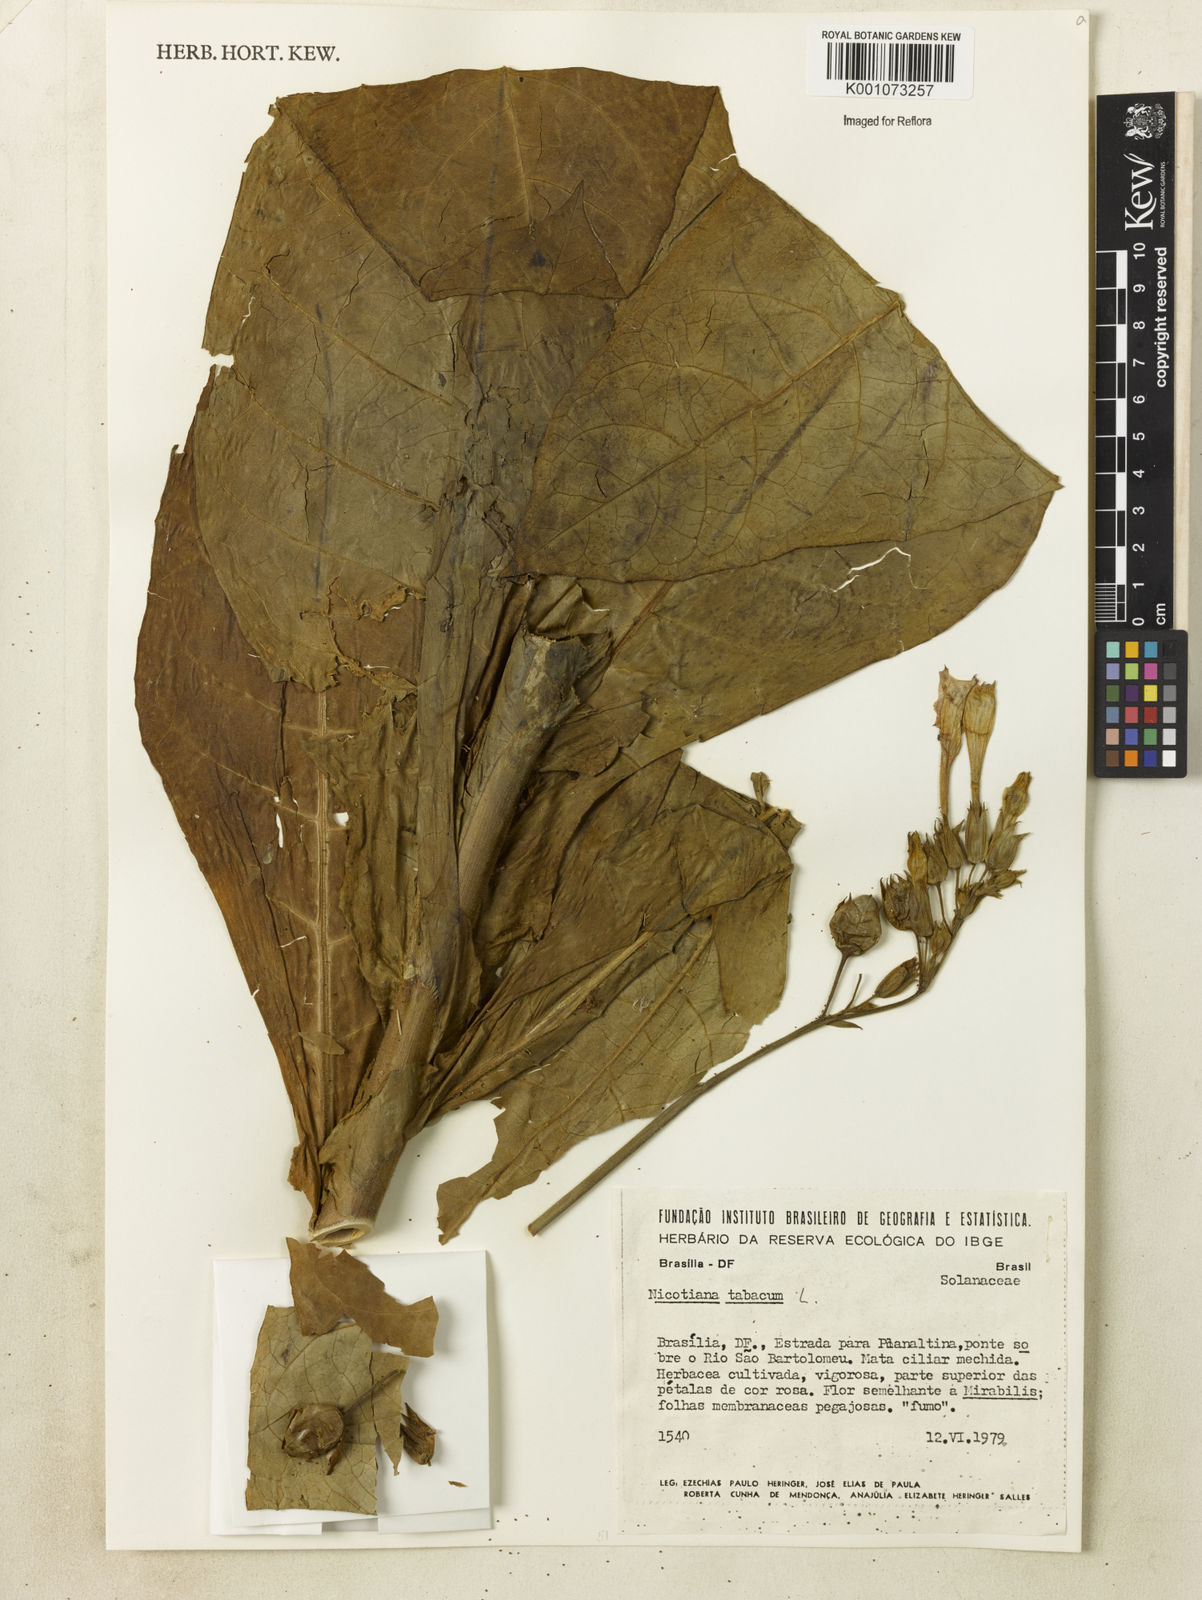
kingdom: Plantae
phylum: Tracheophyta
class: Magnoliopsida
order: Solanales
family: Solanaceae
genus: Nicotiana
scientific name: Nicotiana tabacum
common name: Tobacco
